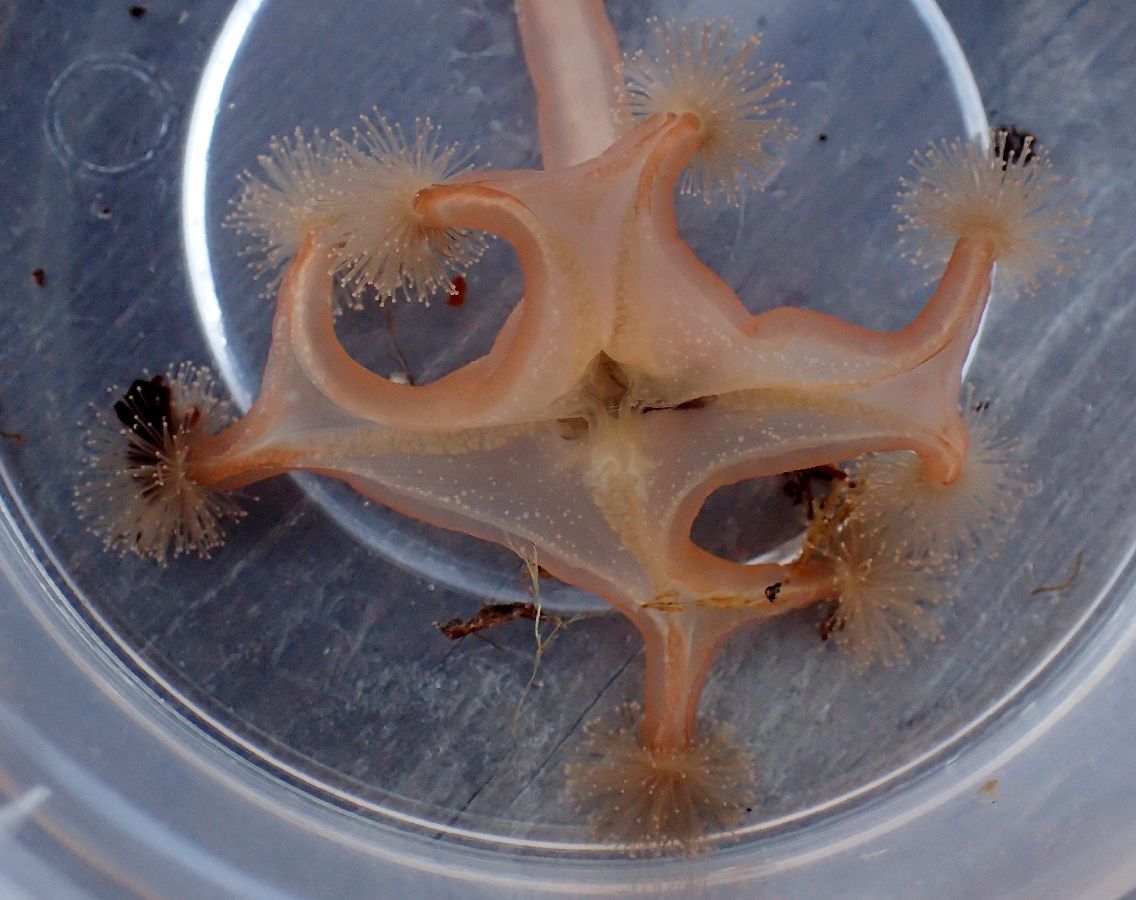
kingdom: Animalia
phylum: Cnidaria
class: Staurozoa
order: Stauromedusae
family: Lucernariidae
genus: Lucernaria
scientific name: Lucernaria quadricornis
